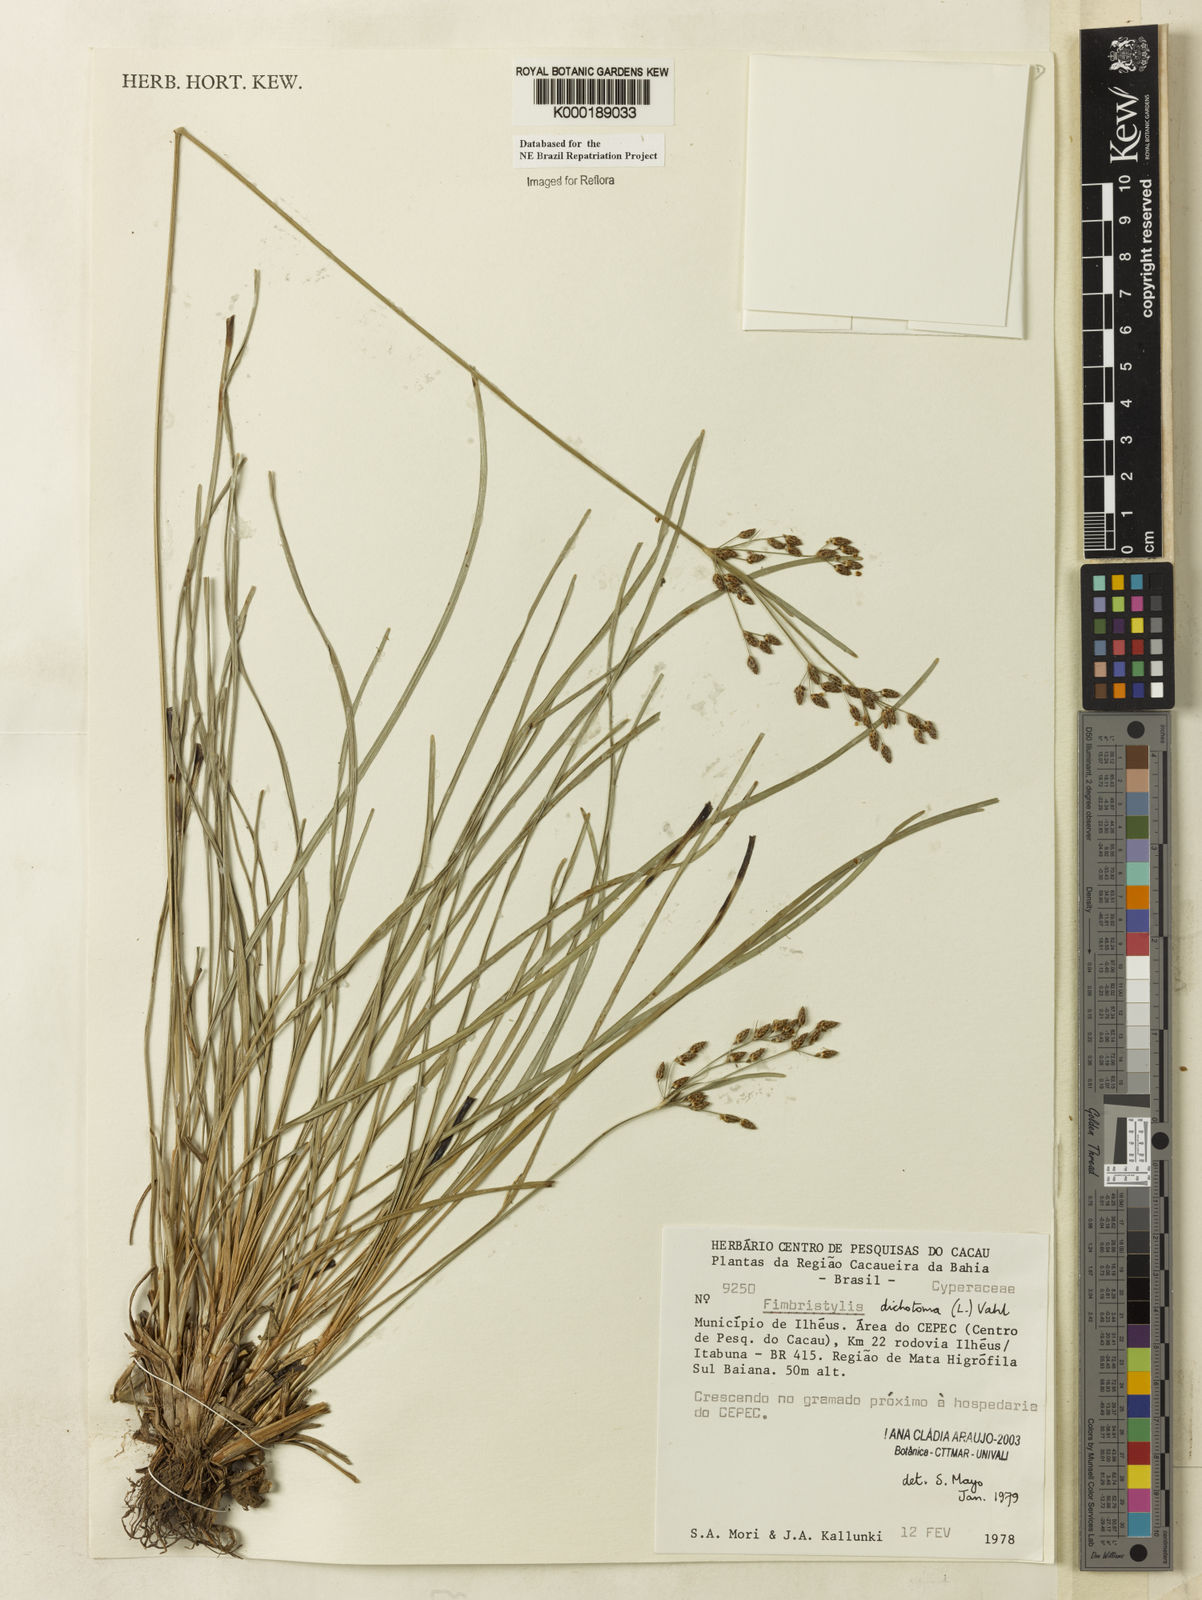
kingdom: Plantae
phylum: Tracheophyta
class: Liliopsida
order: Poales
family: Cyperaceae
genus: Fimbristylis
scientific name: Fimbristylis dichotoma
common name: Forked fimbry
